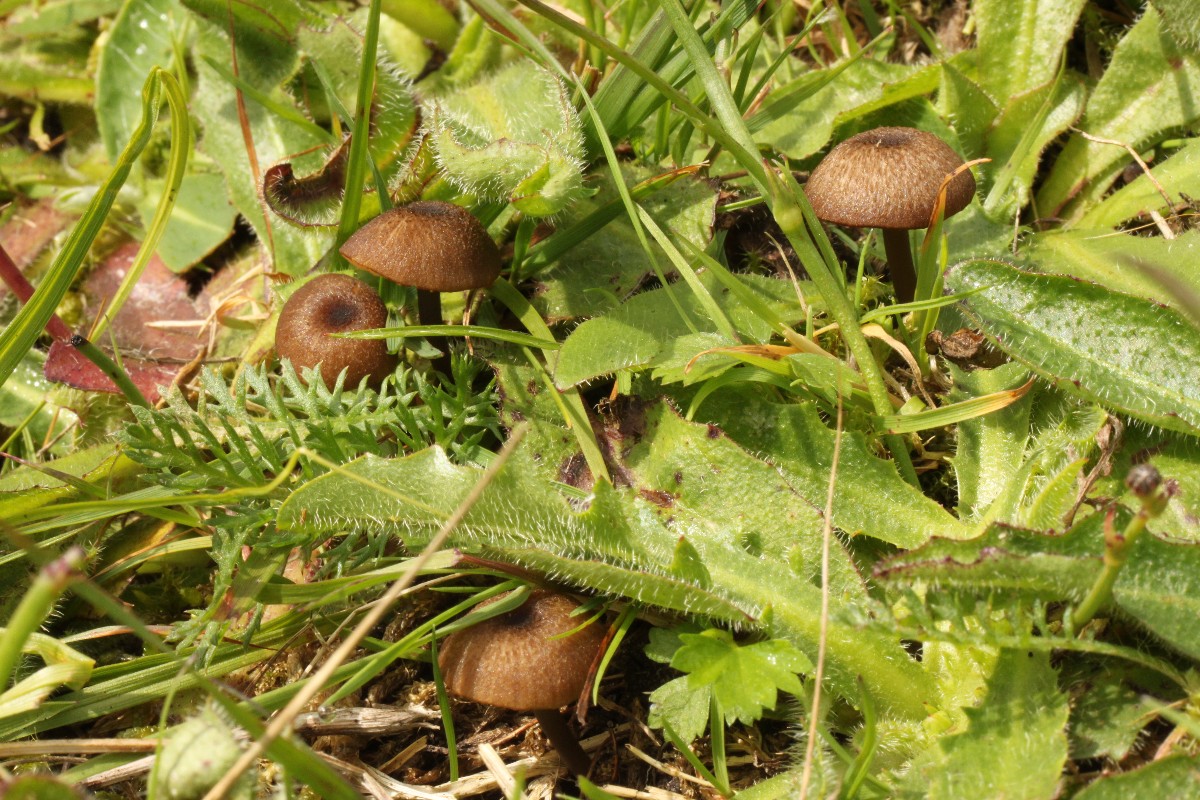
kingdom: Fungi
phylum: Basidiomycota
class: Agaricomycetes
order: Agaricales
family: Entolomataceae
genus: Entoloma
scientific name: Entoloma asprellum
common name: ru rødblad
